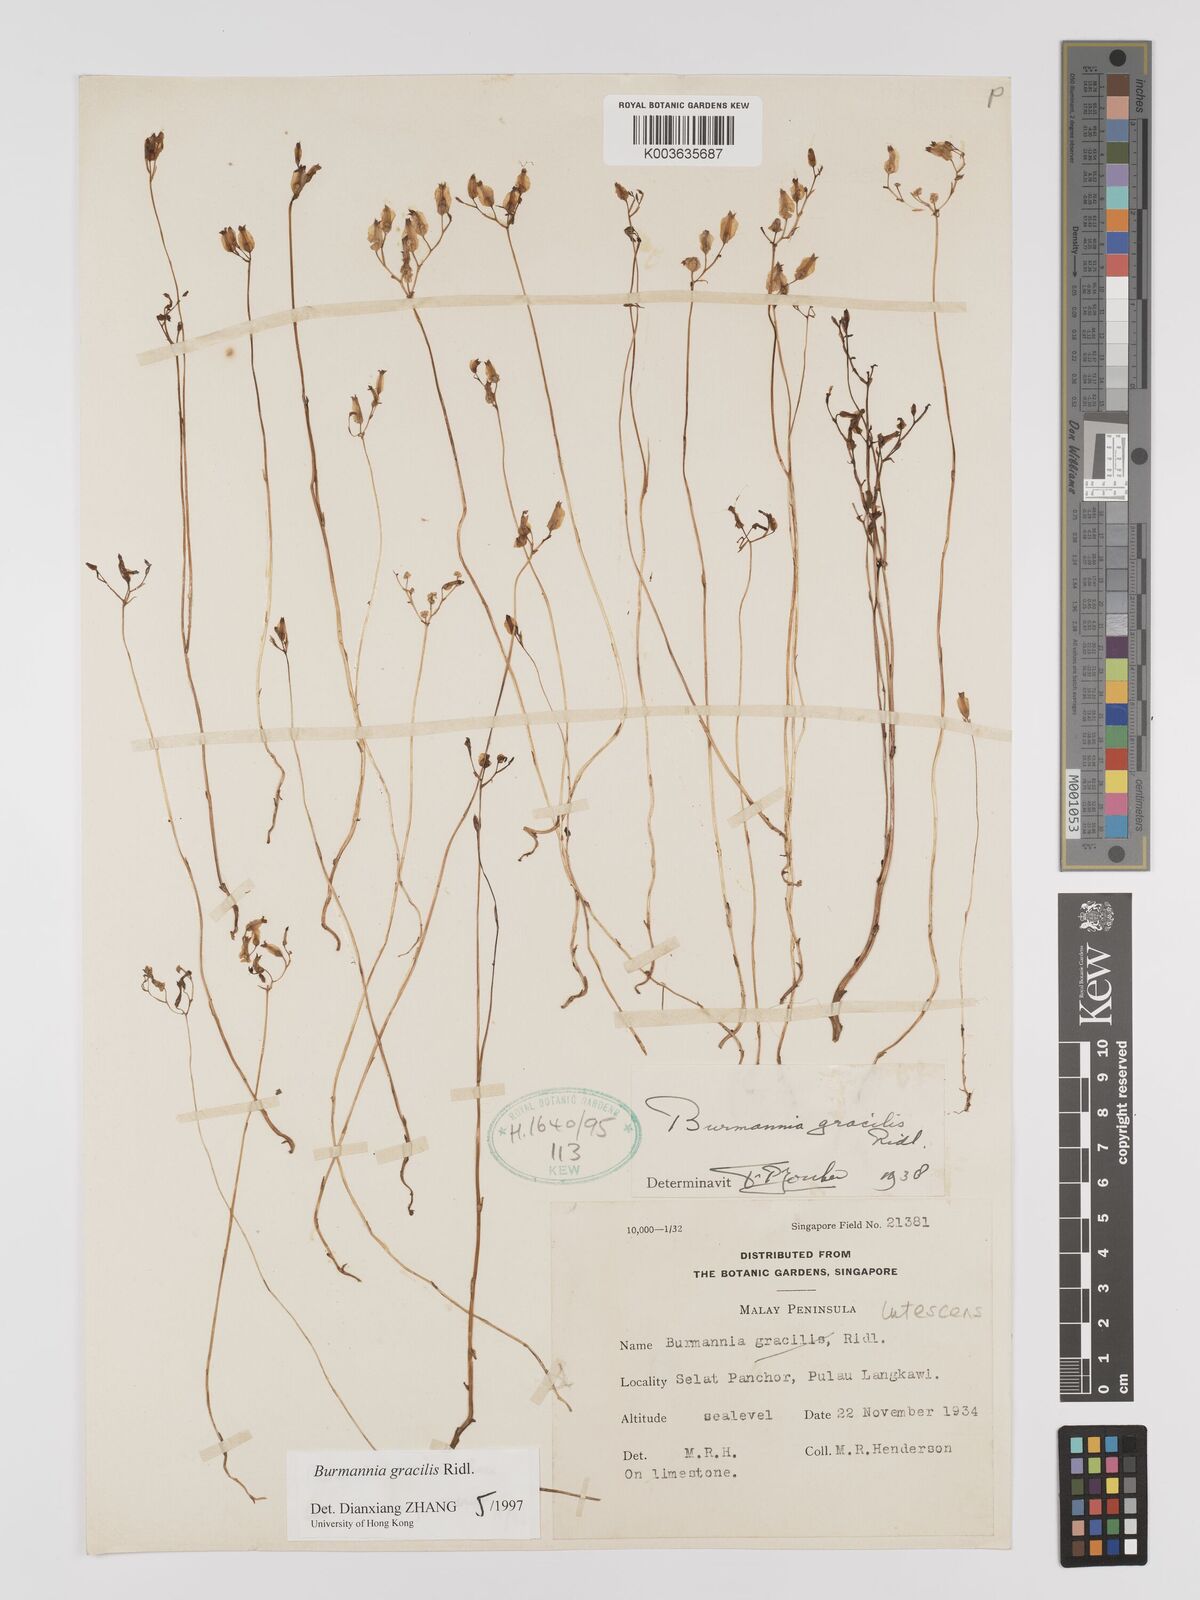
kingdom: Plantae
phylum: Tracheophyta
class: Liliopsida
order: Dioscoreales
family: Burmanniaceae
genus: Burmannia
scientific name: Burmannia lutescens
